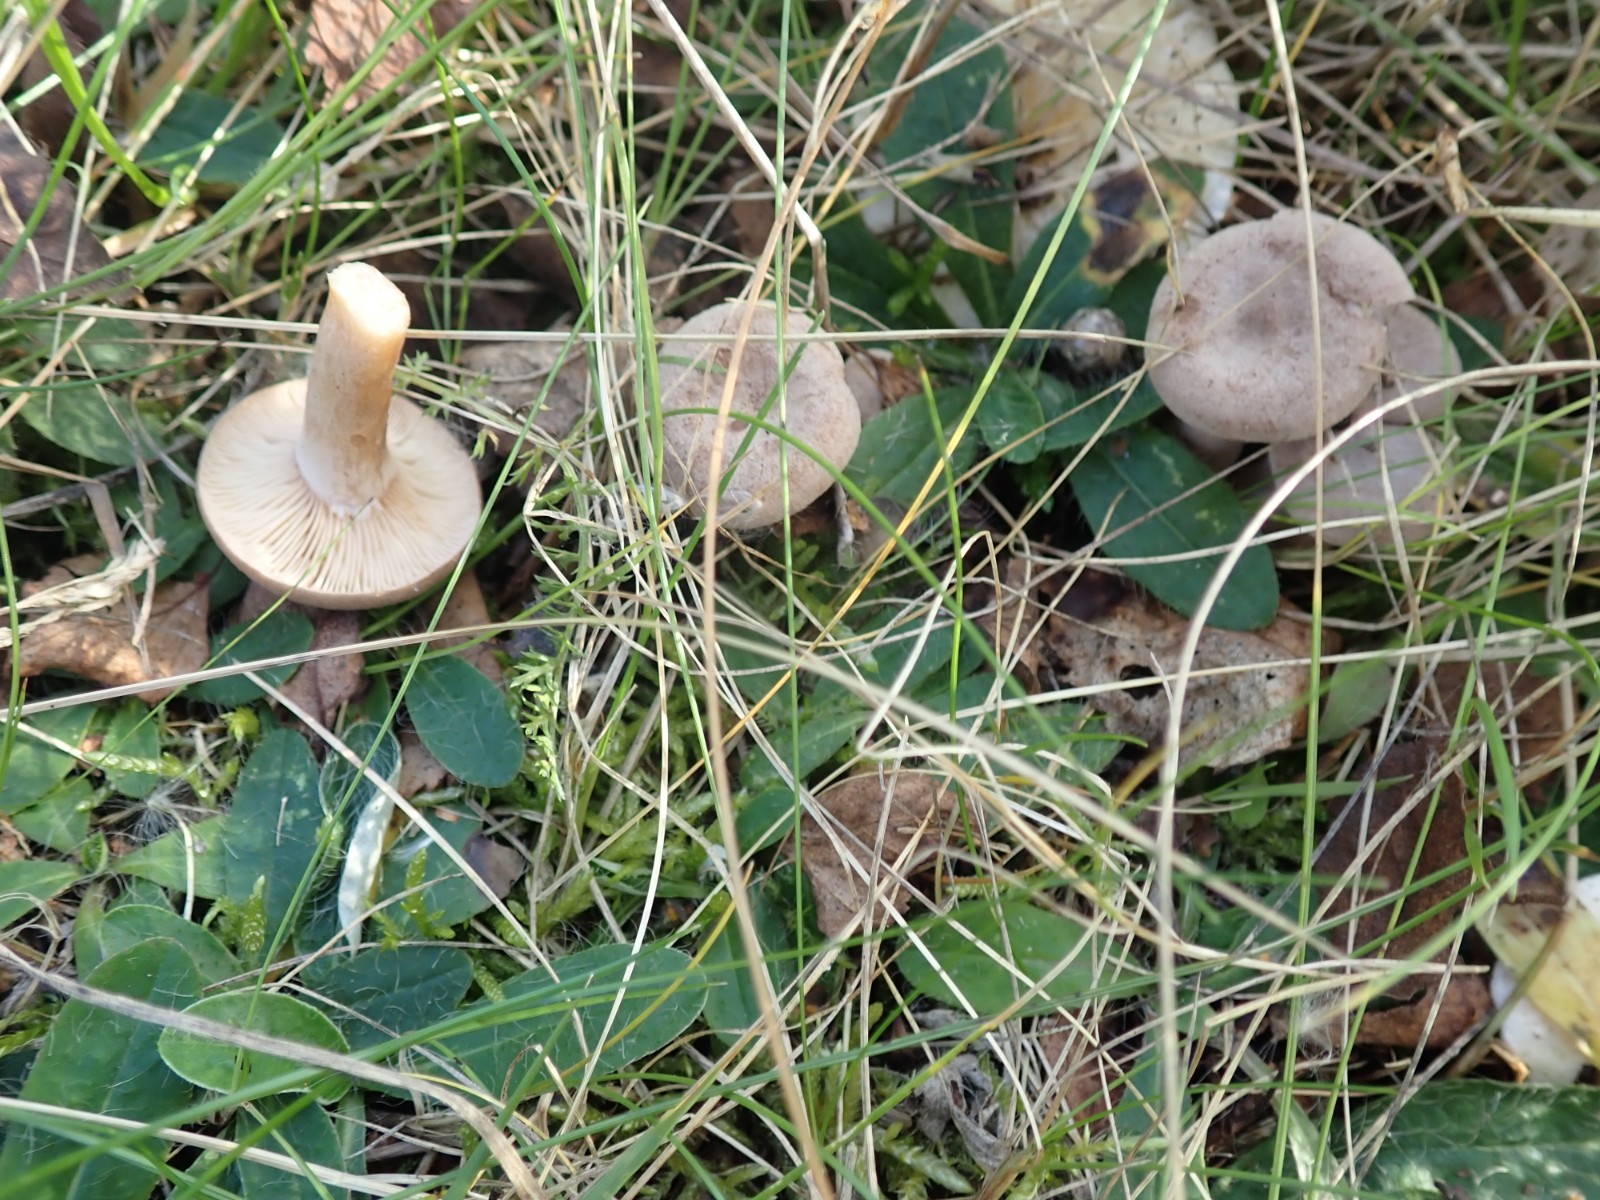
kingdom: Fungi
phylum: Basidiomycota
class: Agaricomycetes
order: Russulales
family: Russulaceae
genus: Lactarius
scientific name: Lactarius glyciosmus
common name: kokos-mælkehat
